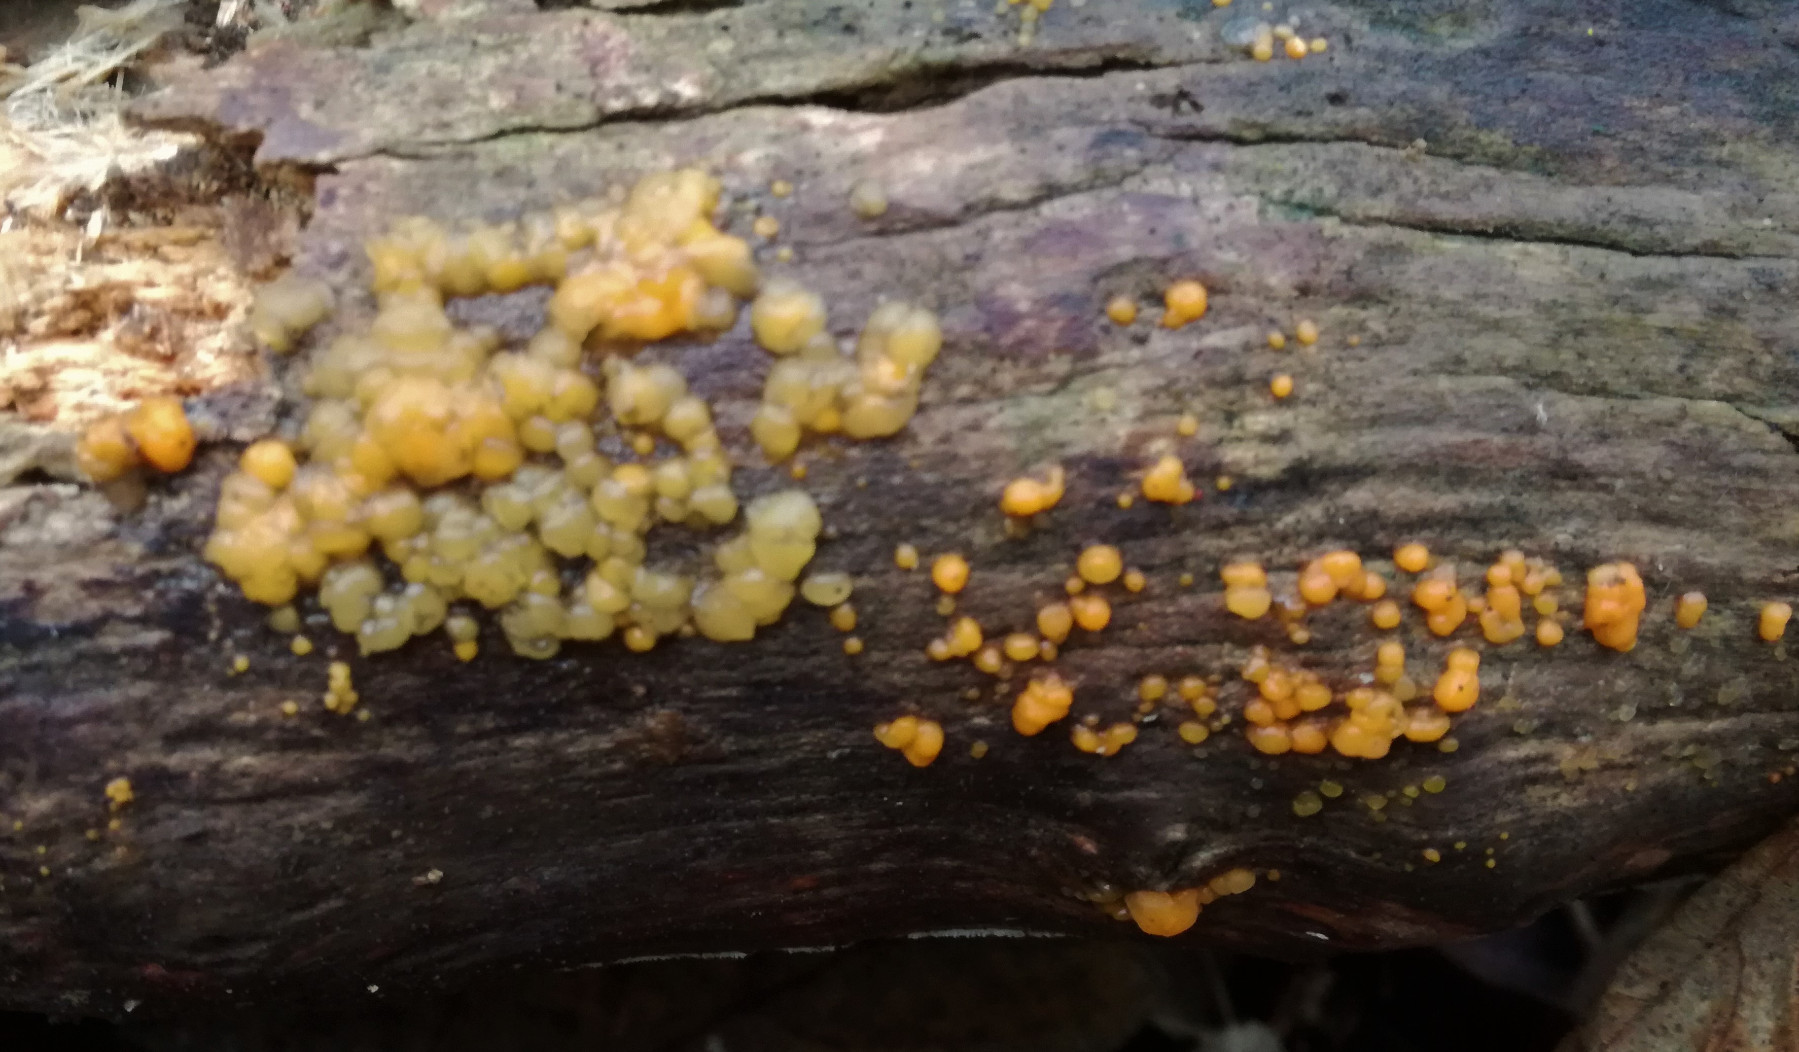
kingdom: Fungi
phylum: Basidiomycota
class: Dacrymycetes
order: Dacrymycetales
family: Dacrymycetaceae
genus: Dacrymyces
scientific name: Dacrymyces stillatus
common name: almindelig tåresvamp
